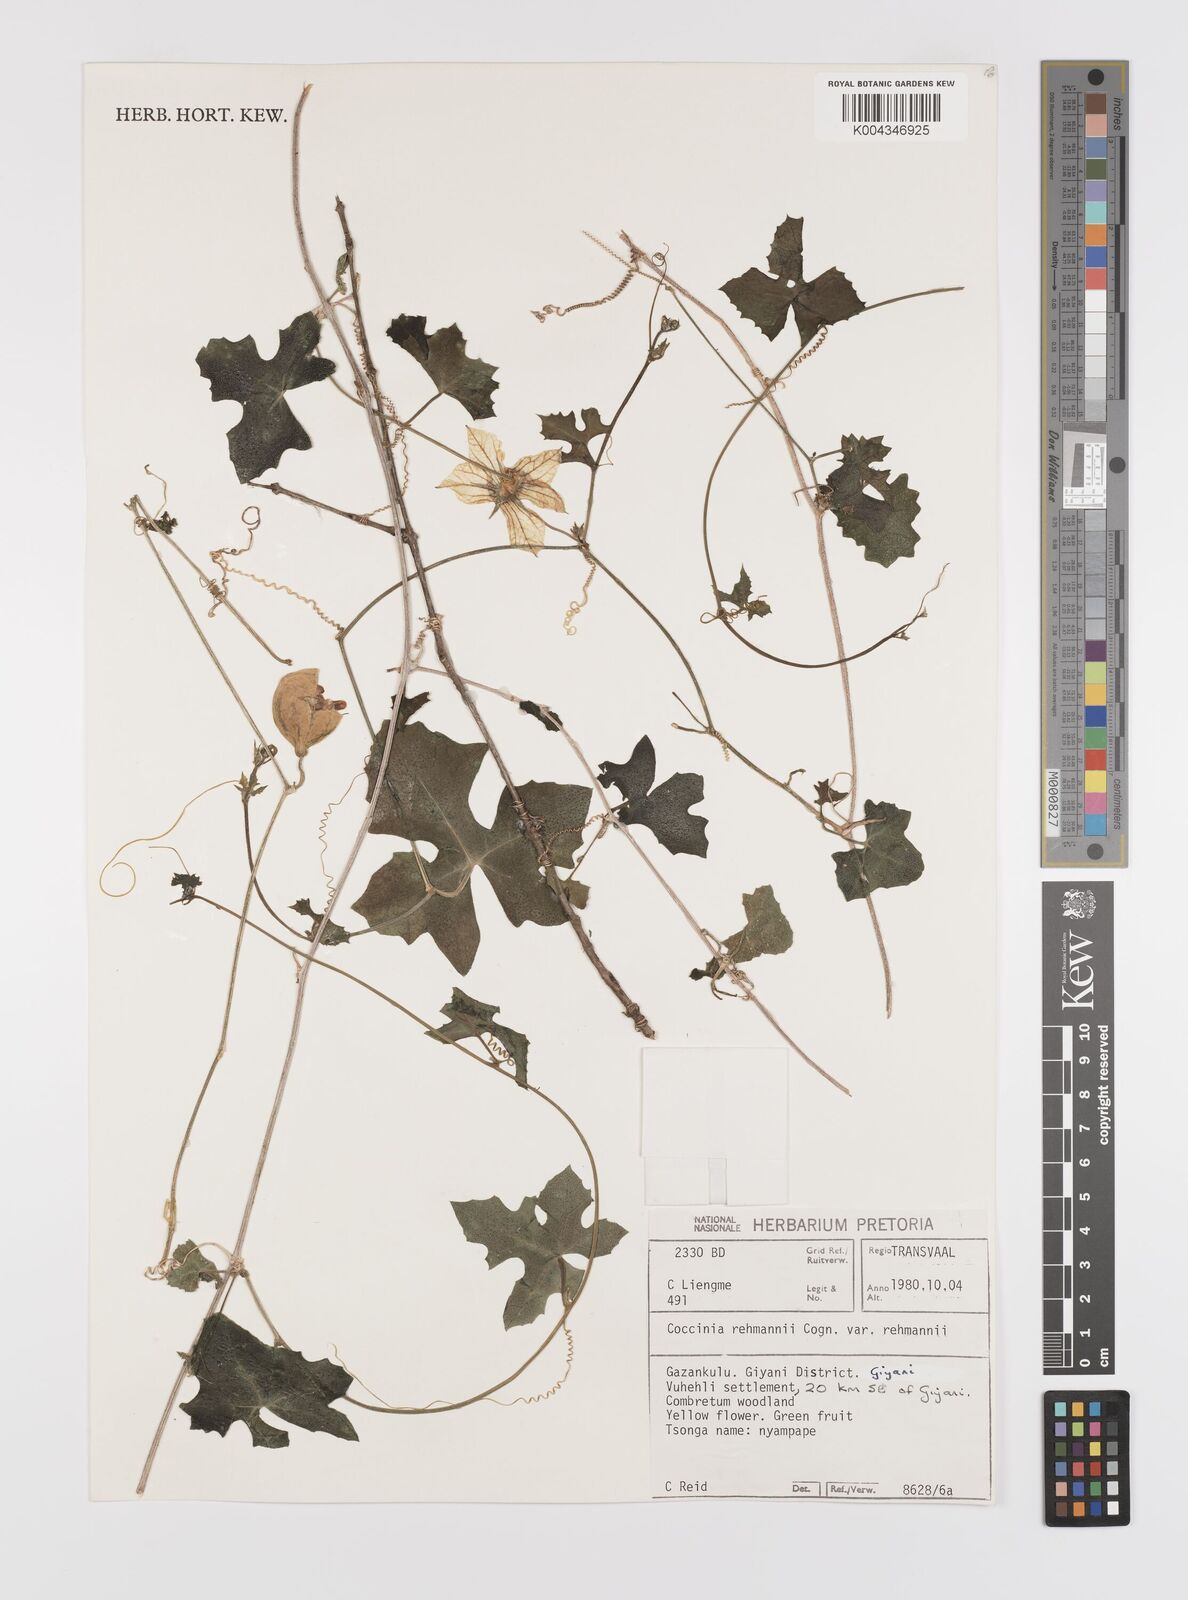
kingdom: Plantae
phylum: Tracheophyta
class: Magnoliopsida
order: Cucurbitales
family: Cucurbitaceae
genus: Coccinia
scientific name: Coccinia rehmannii
